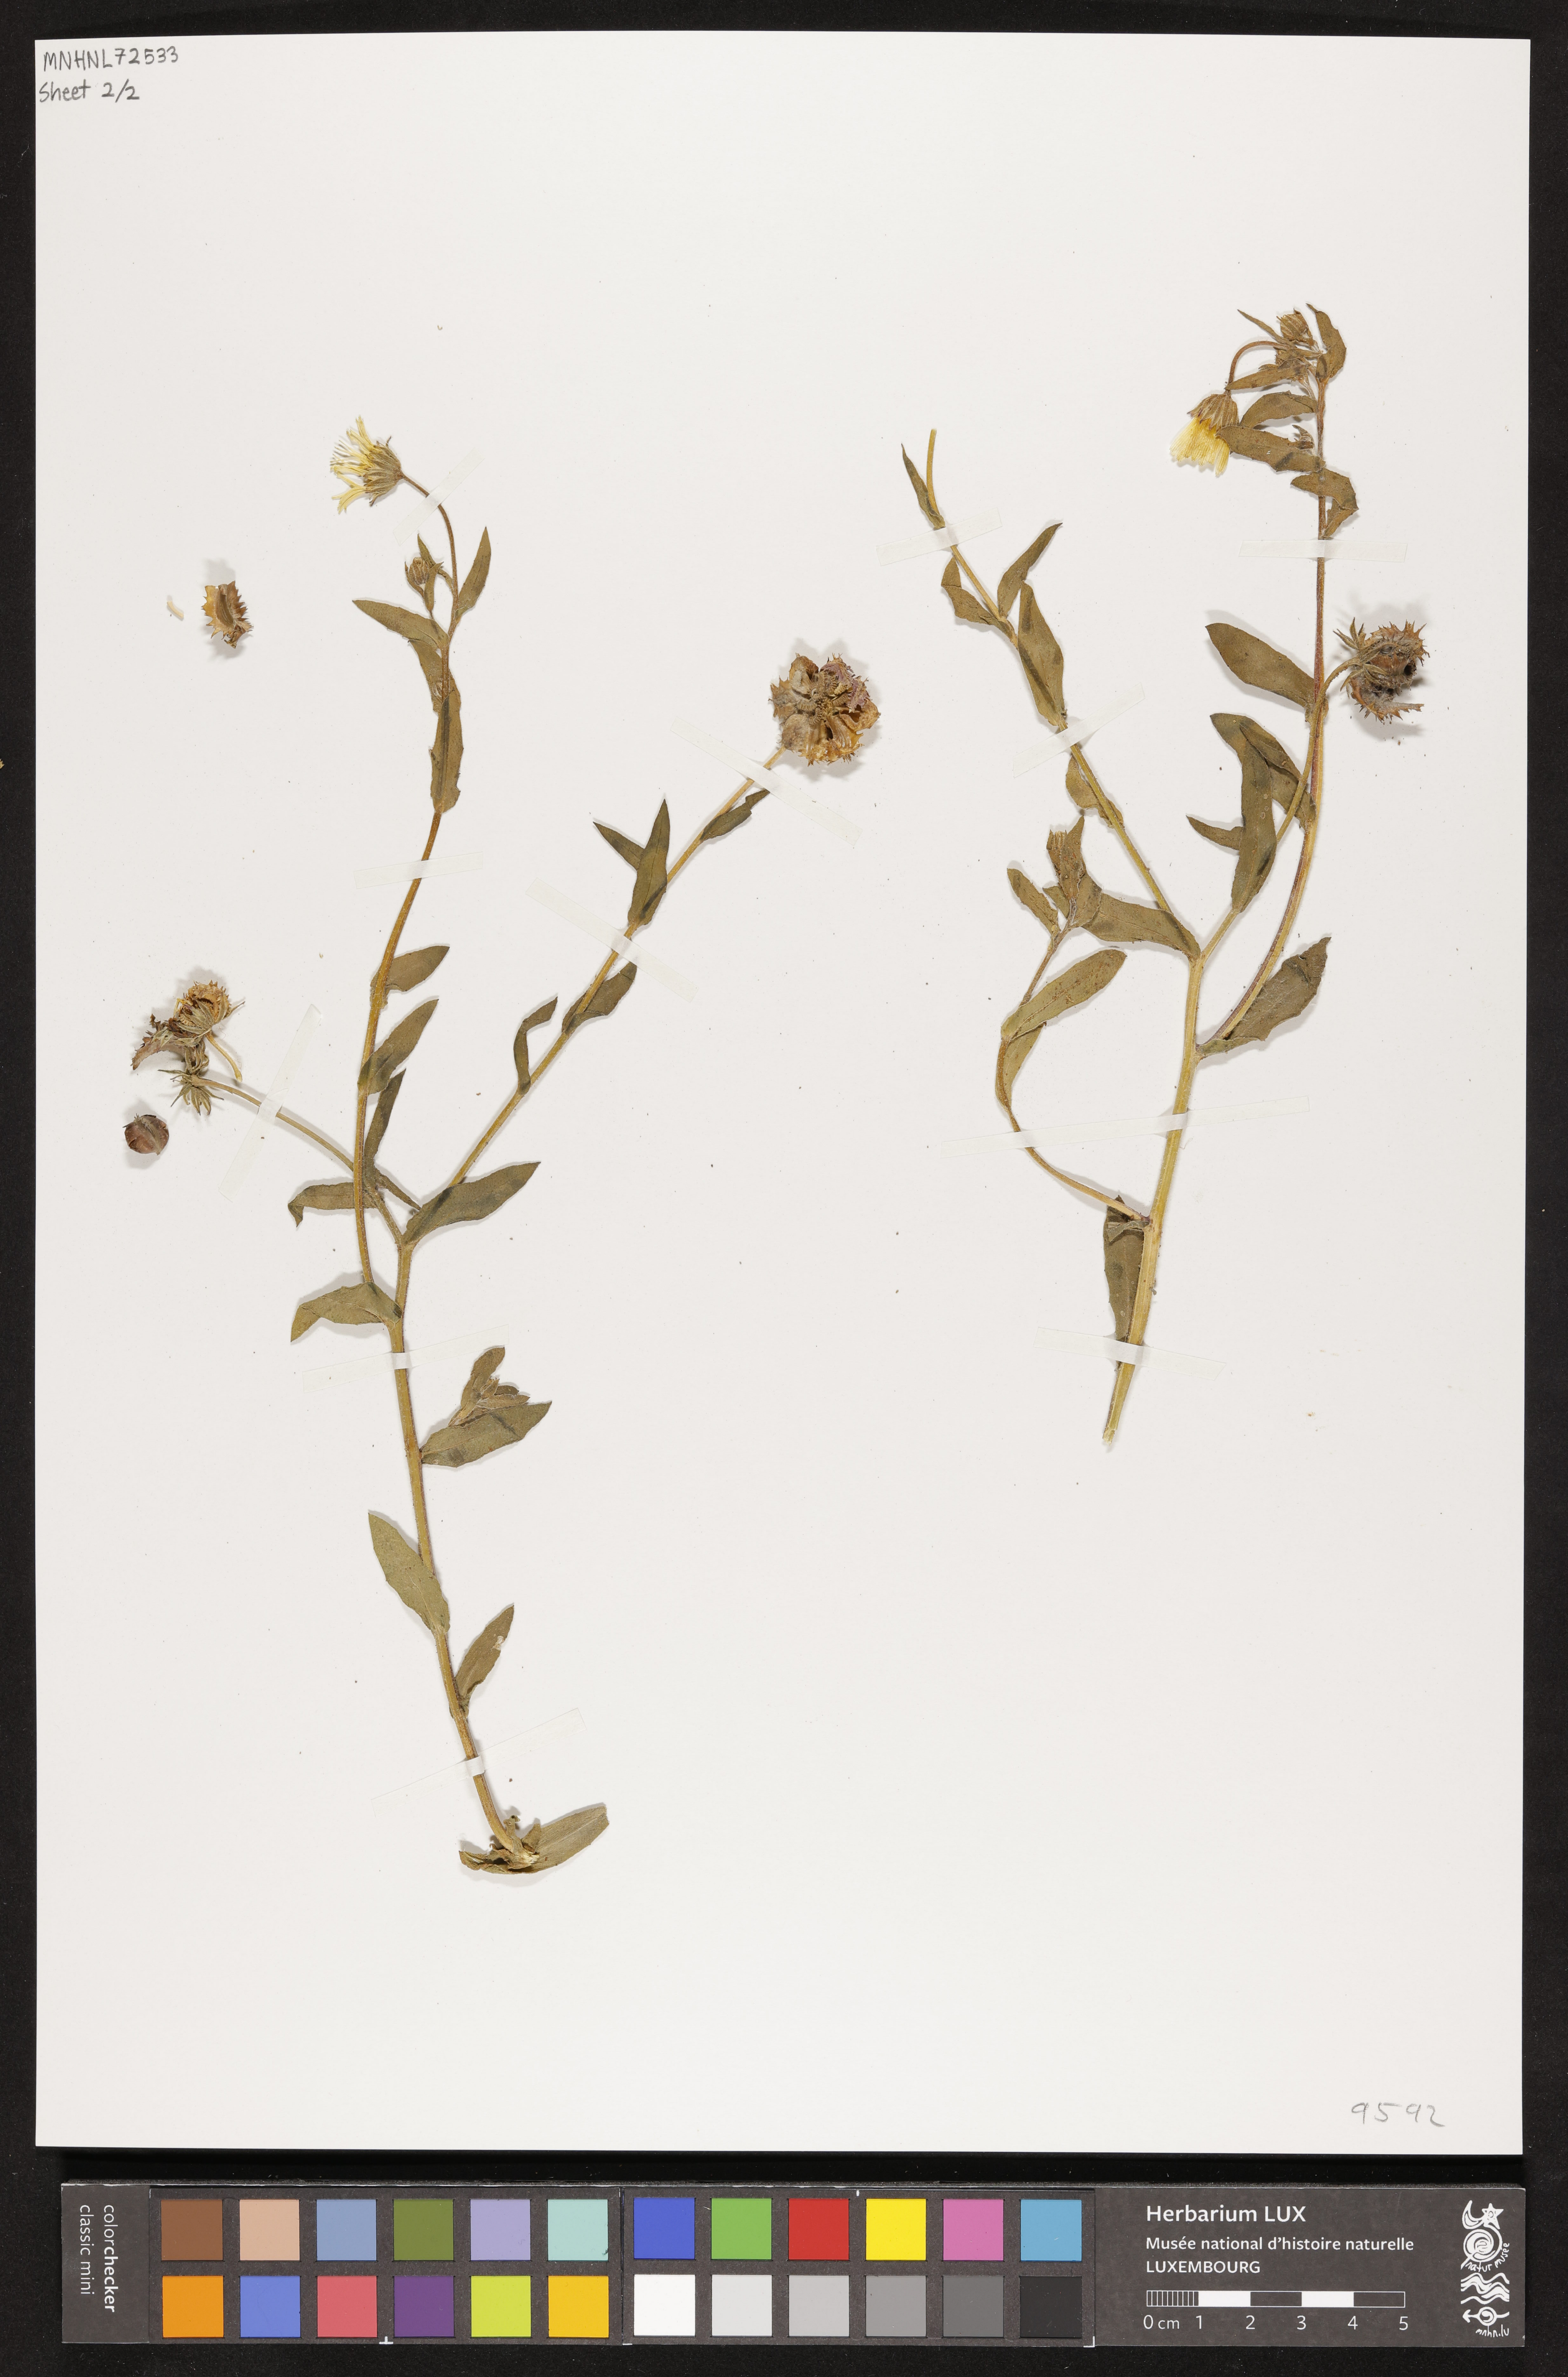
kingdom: Plantae
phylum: Tracheophyta
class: Magnoliopsida
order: Asterales
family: Asteraceae
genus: Calendula
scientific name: Calendula arvensis
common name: Field marigold
